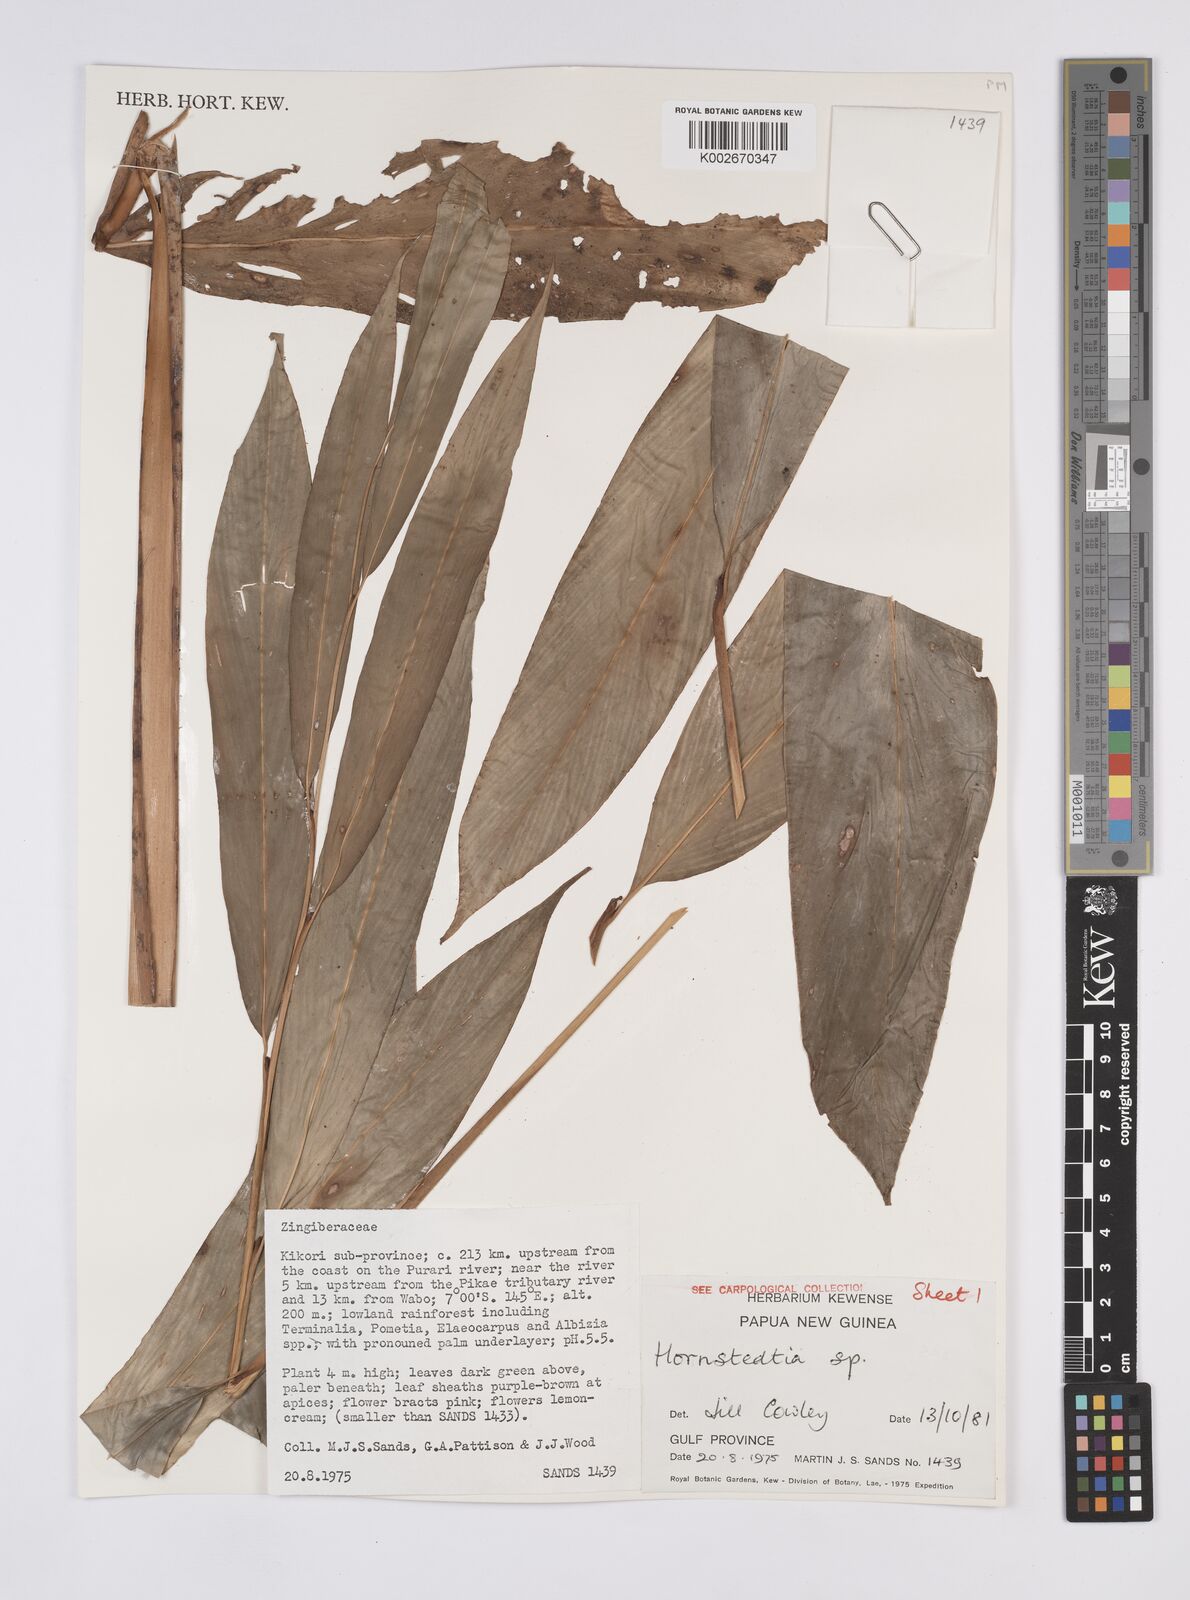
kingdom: Plantae
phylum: Tracheophyta
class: Liliopsida
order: Zingiberales
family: Zingiberaceae
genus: Hornstedtia
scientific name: Hornstedtia
